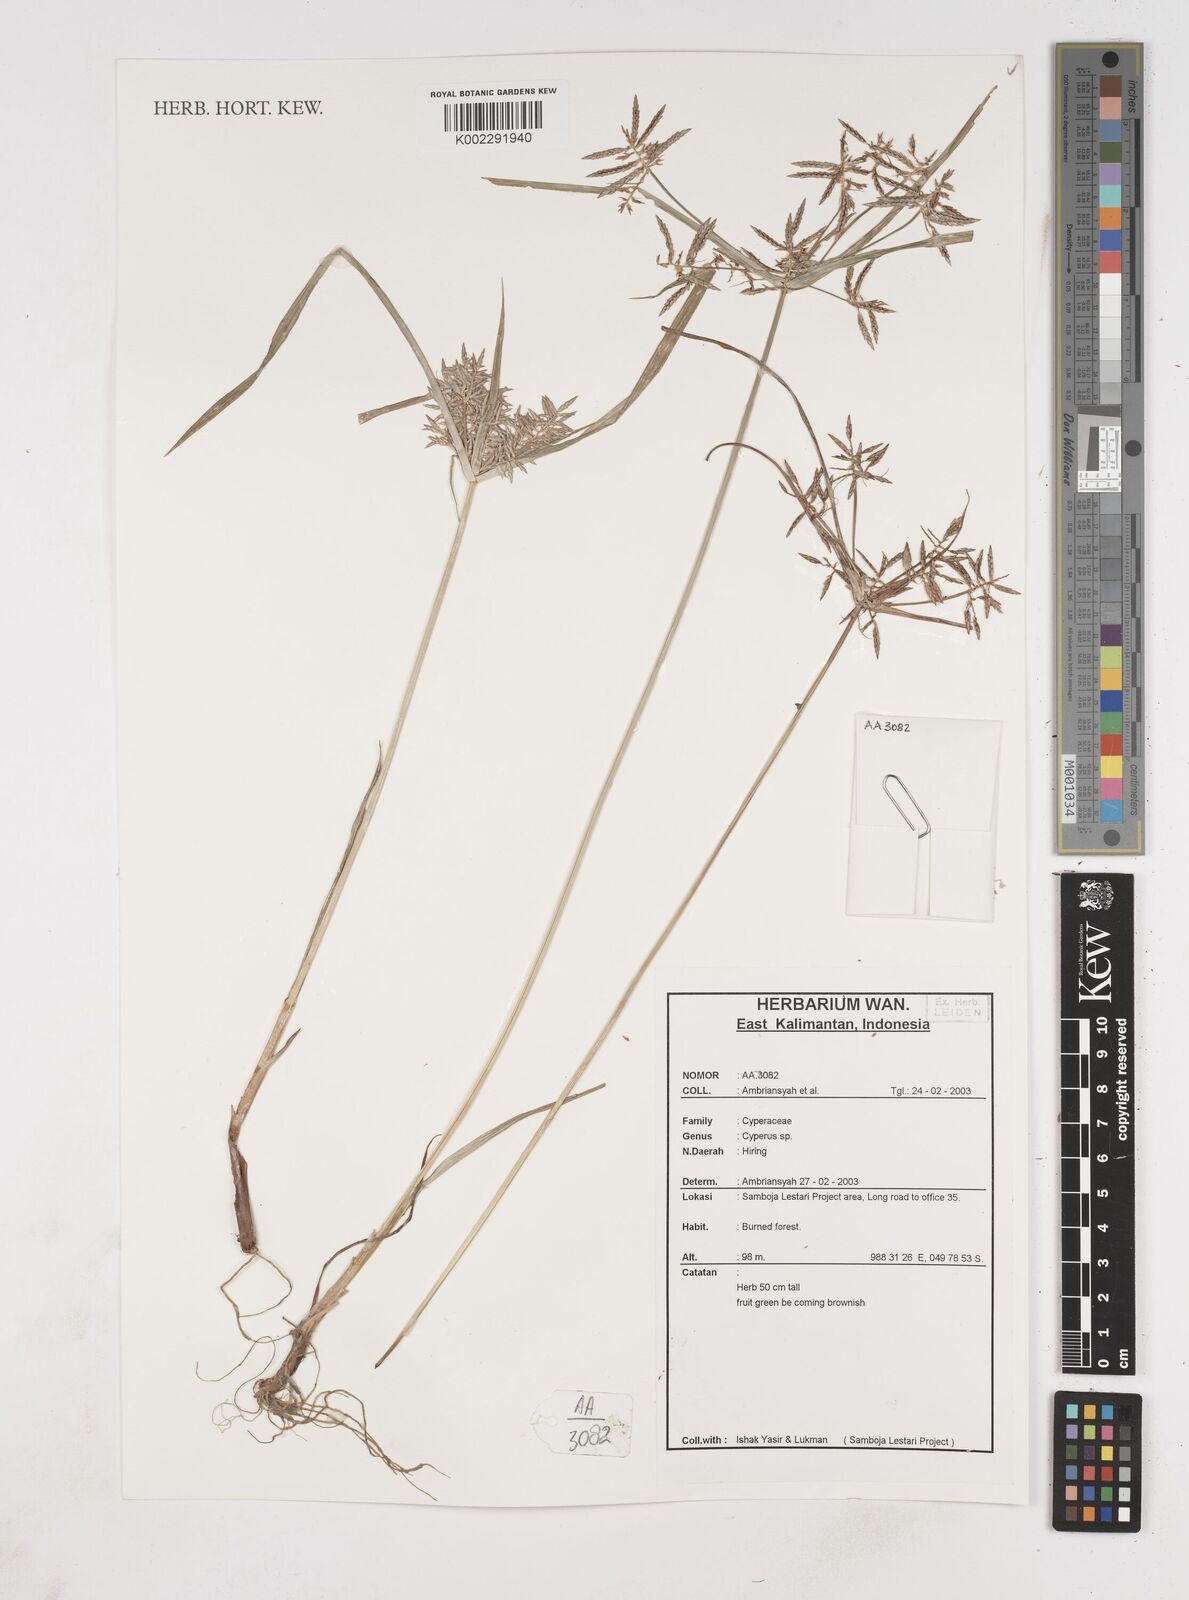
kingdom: Plantae
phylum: Tracheophyta
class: Liliopsida
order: Poales
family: Cyperaceae
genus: Cyperus
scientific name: Cyperus
